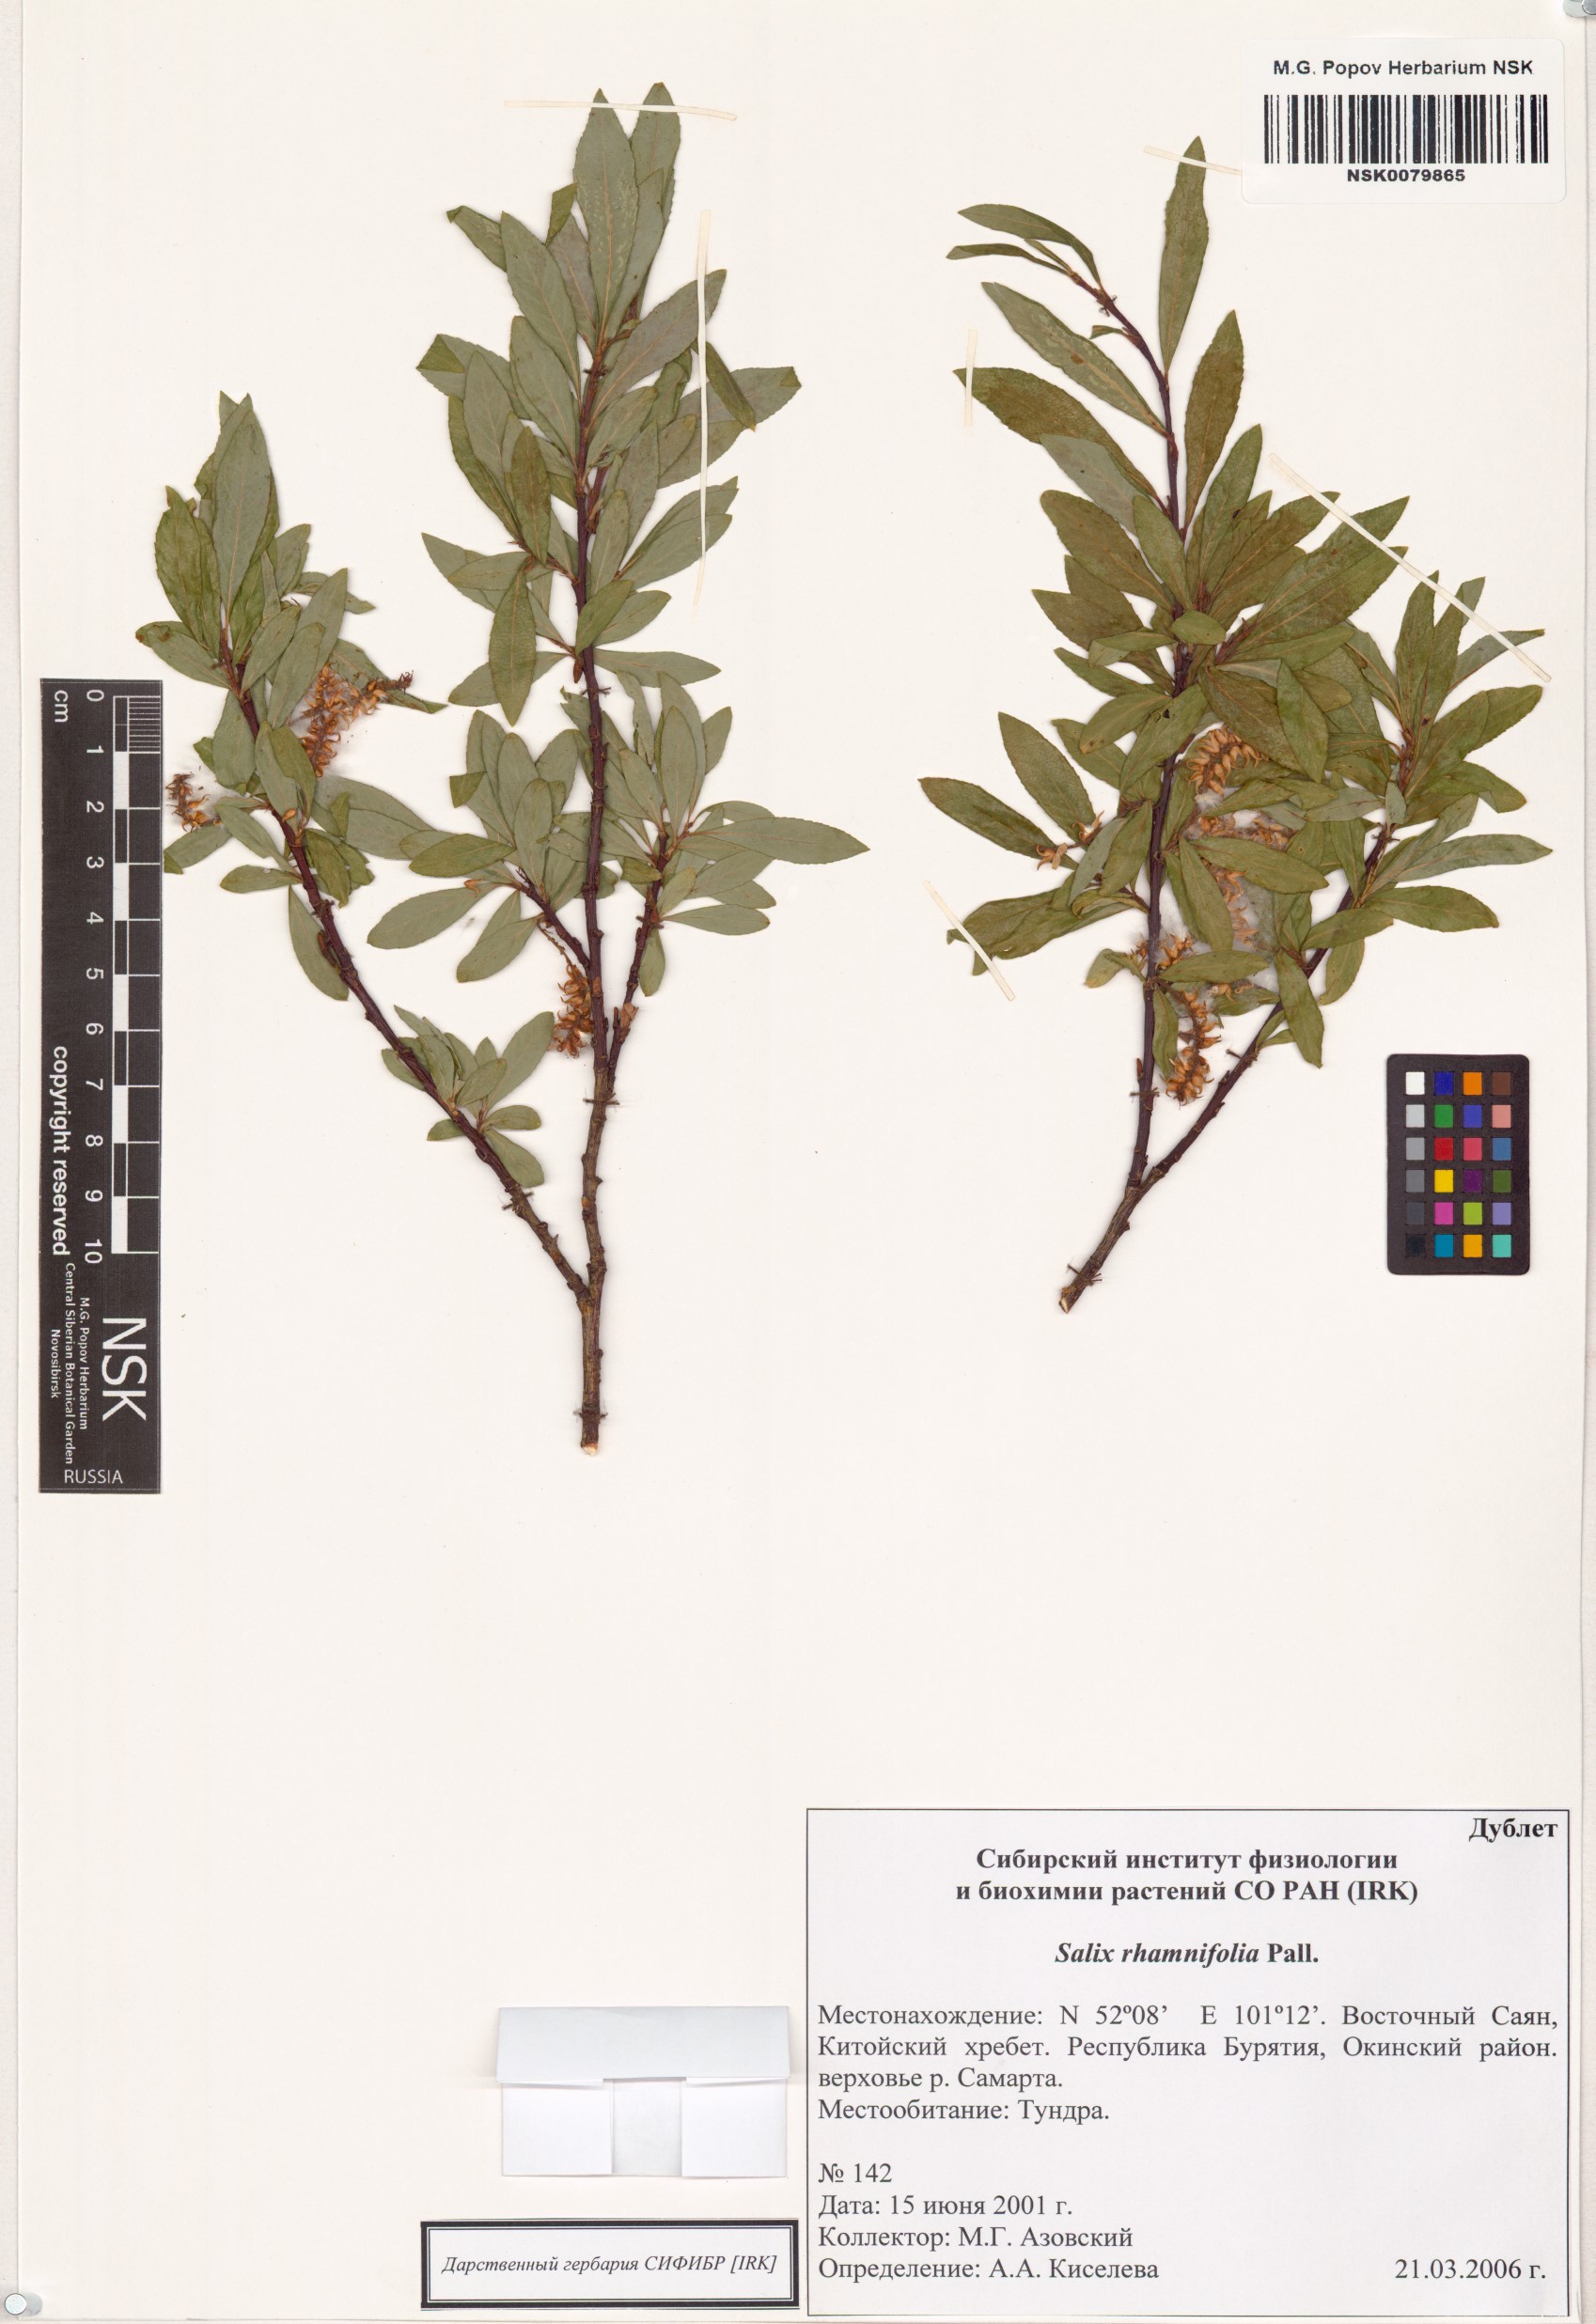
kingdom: Plantae
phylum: Tracheophyta
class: Magnoliopsida
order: Malpighiales
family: Salicaceae
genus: Salix
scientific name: Salix rhamnifolia
